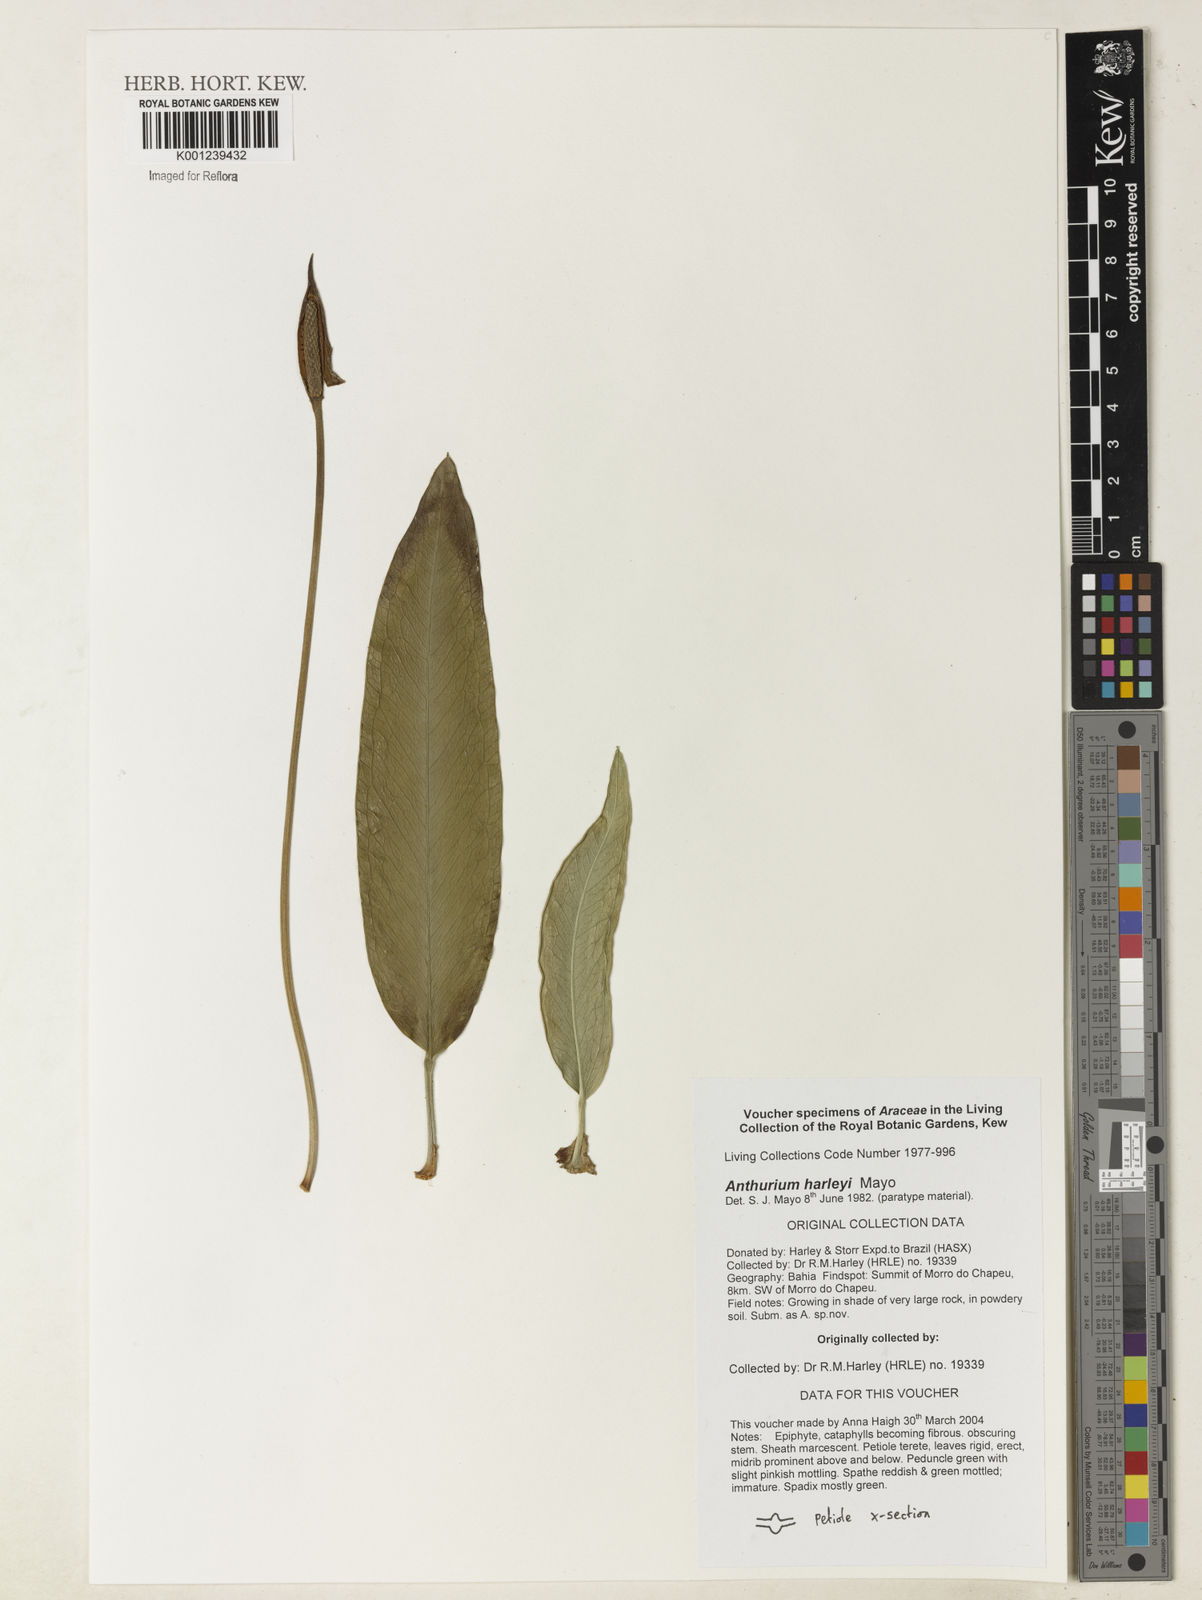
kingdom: Plantae
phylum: Tracheophyta
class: Liliopsida
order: Alismatales
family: Araceae
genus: Anthurium
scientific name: Anthurium
